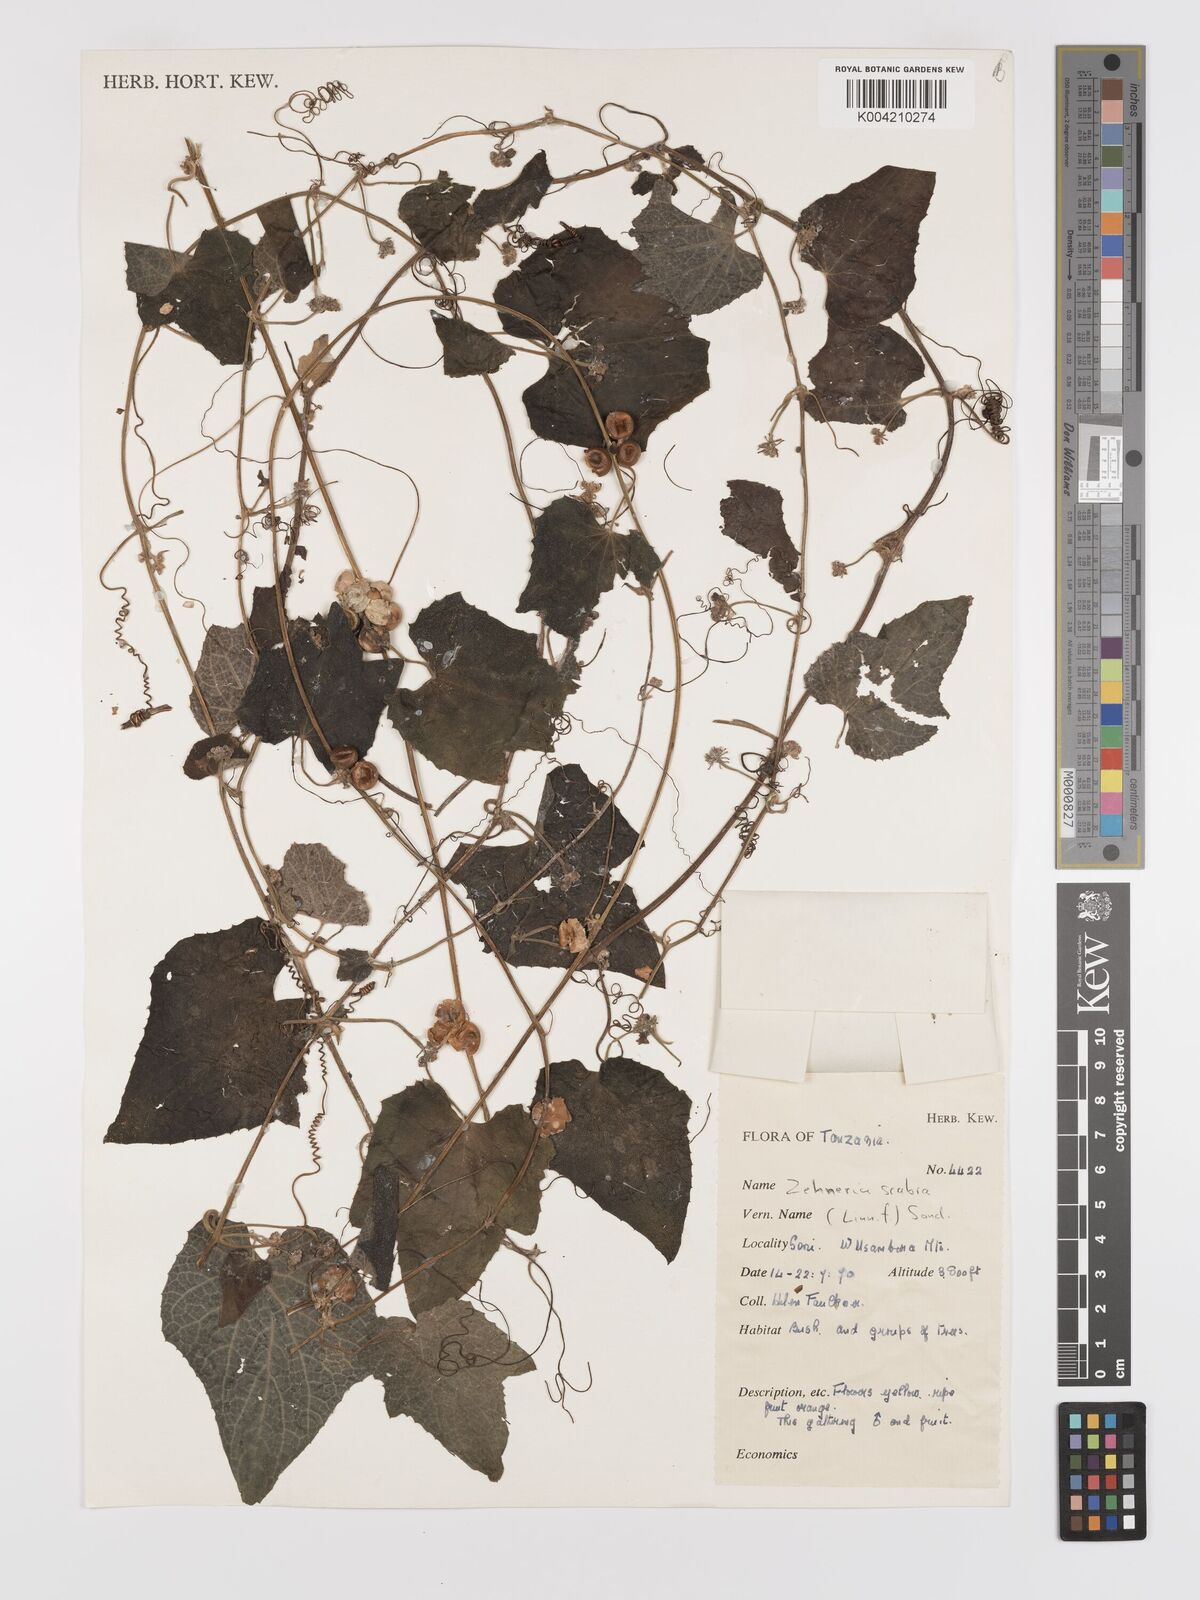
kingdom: Plantae
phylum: Tracheophyta
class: Magnoliopsida
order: Cucurbitales
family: Cucurbitaceae
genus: Zehneria
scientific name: Zehneria scabra
